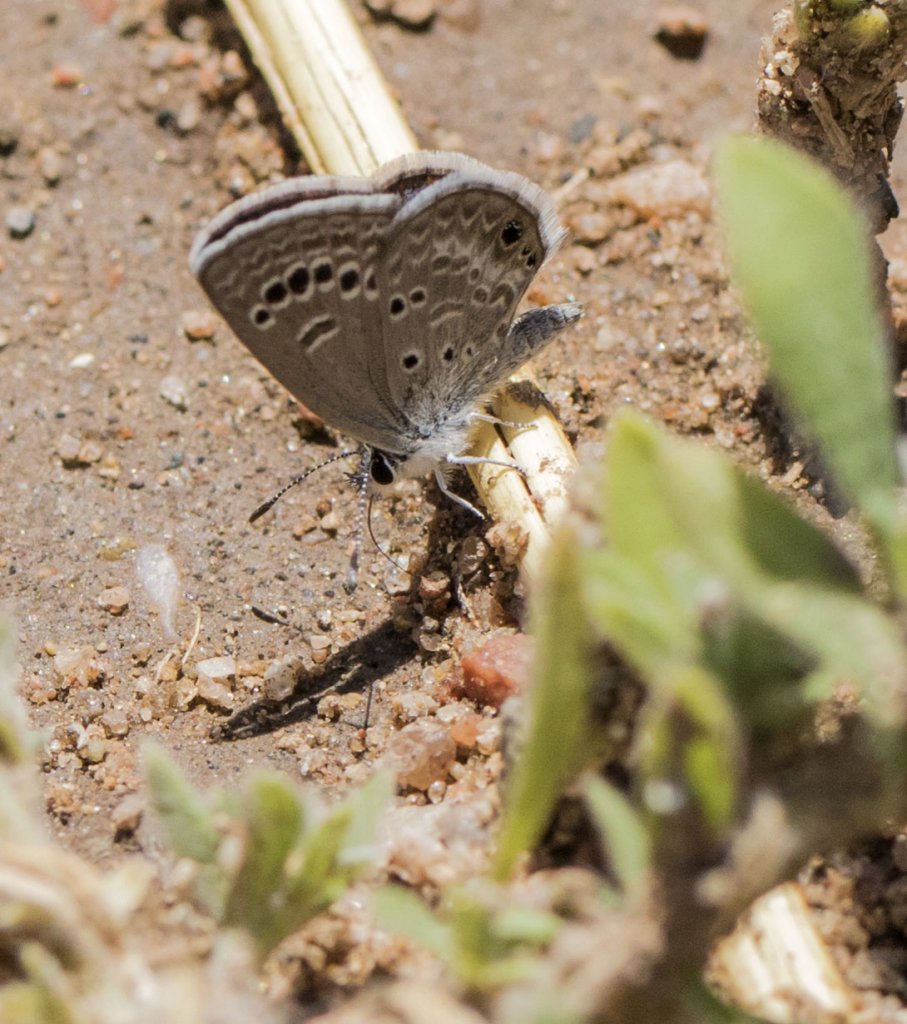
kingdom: Animalia
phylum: Arthropoda
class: Insecta
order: Lepidoptera
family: Lycaenidae
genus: Echinargus
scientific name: Echinargus isola
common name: Reakirt's Blue
